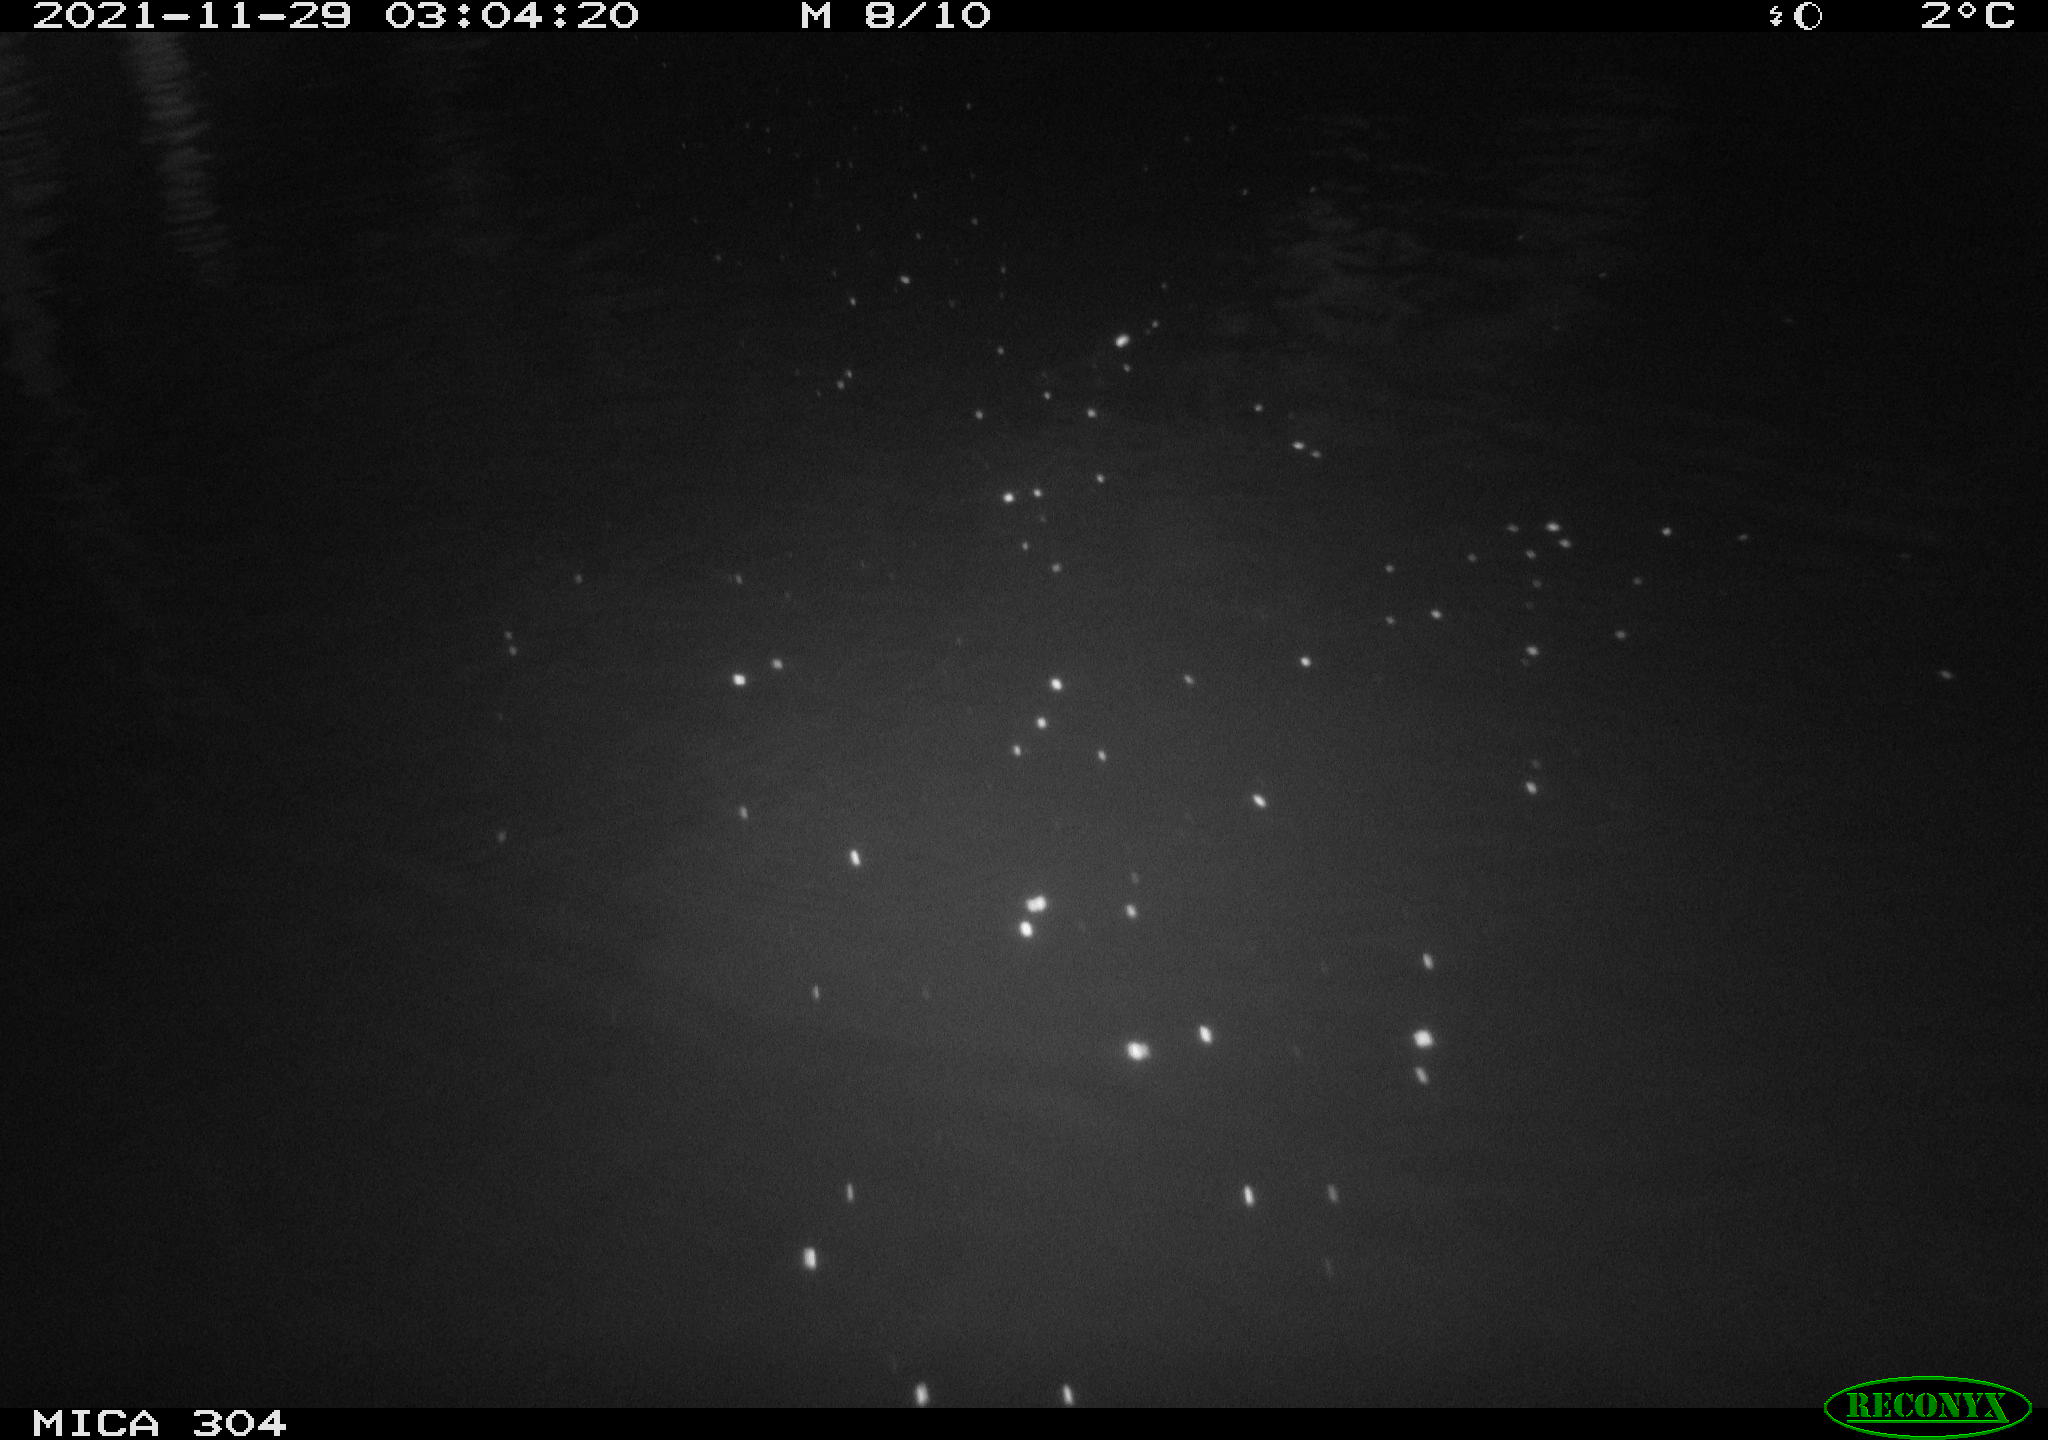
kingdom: Animalia
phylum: Chordata
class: Mammalia
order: Rodentia
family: Muridae
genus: Rattus
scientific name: Rattus norvegicus
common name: Brown rat
